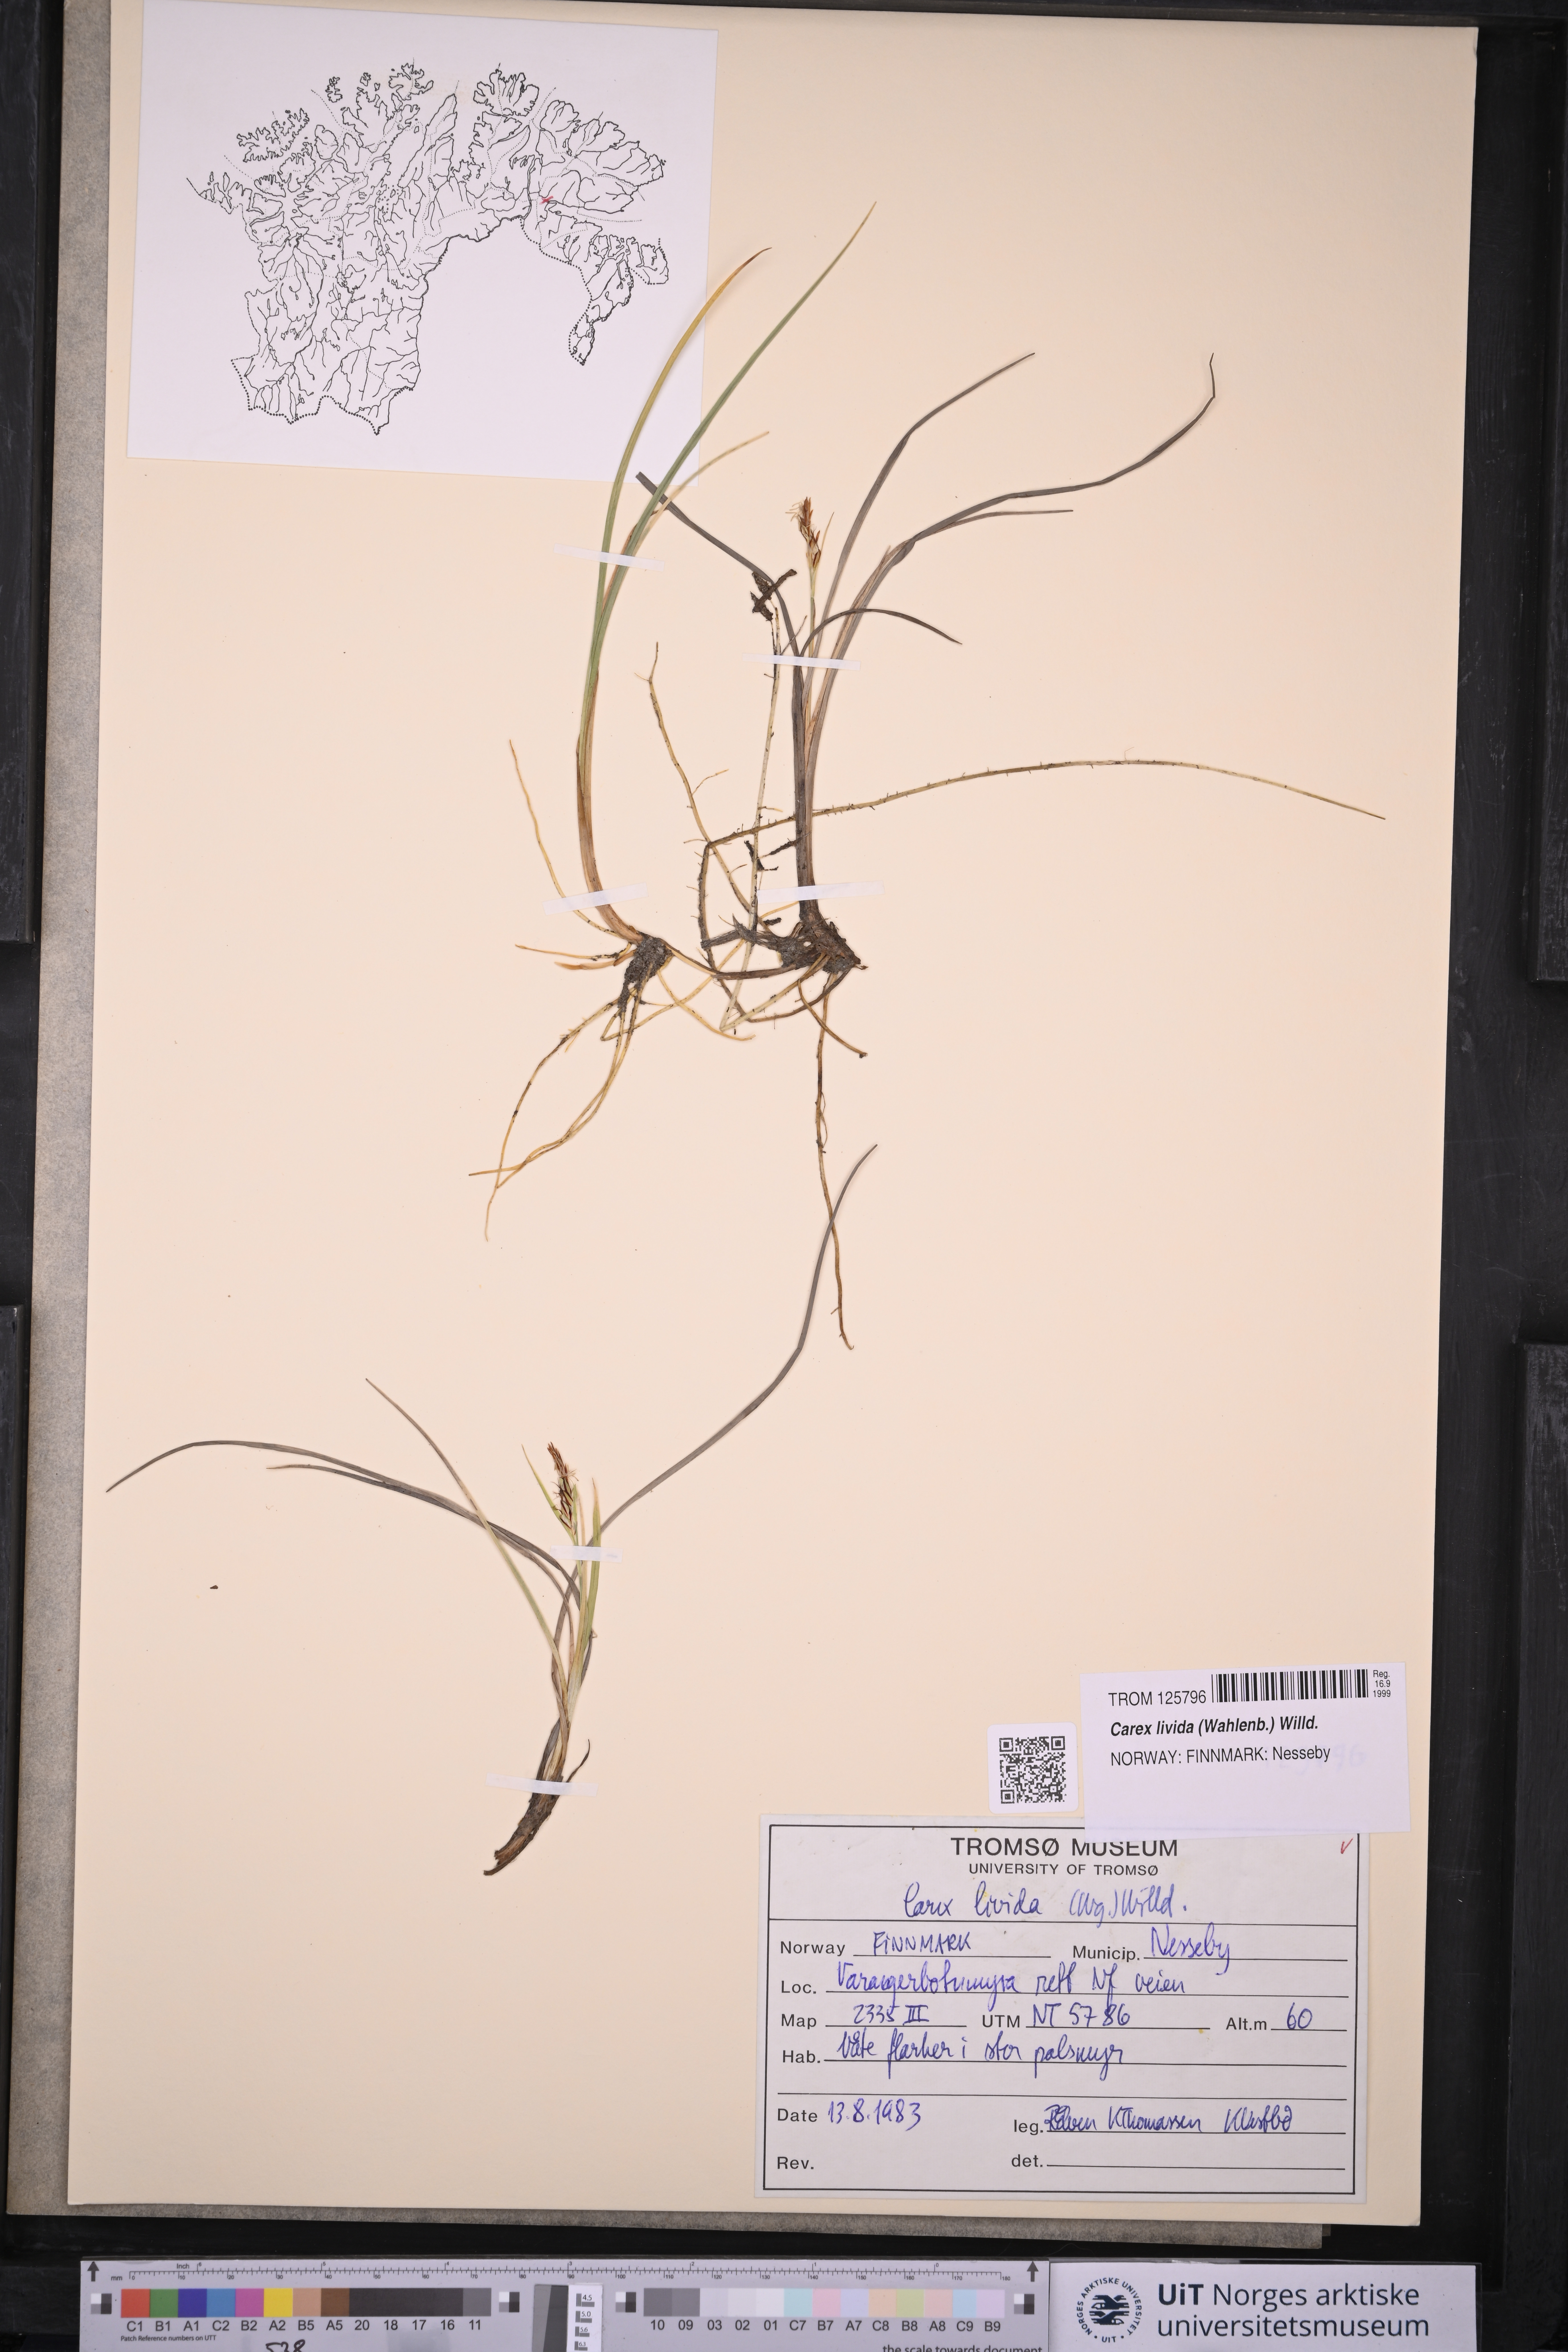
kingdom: Plantae
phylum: Tracheophyta
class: Liliopsida
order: Poales
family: Cyperaceae
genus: Carex
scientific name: Carex livida
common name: Livid sedge
